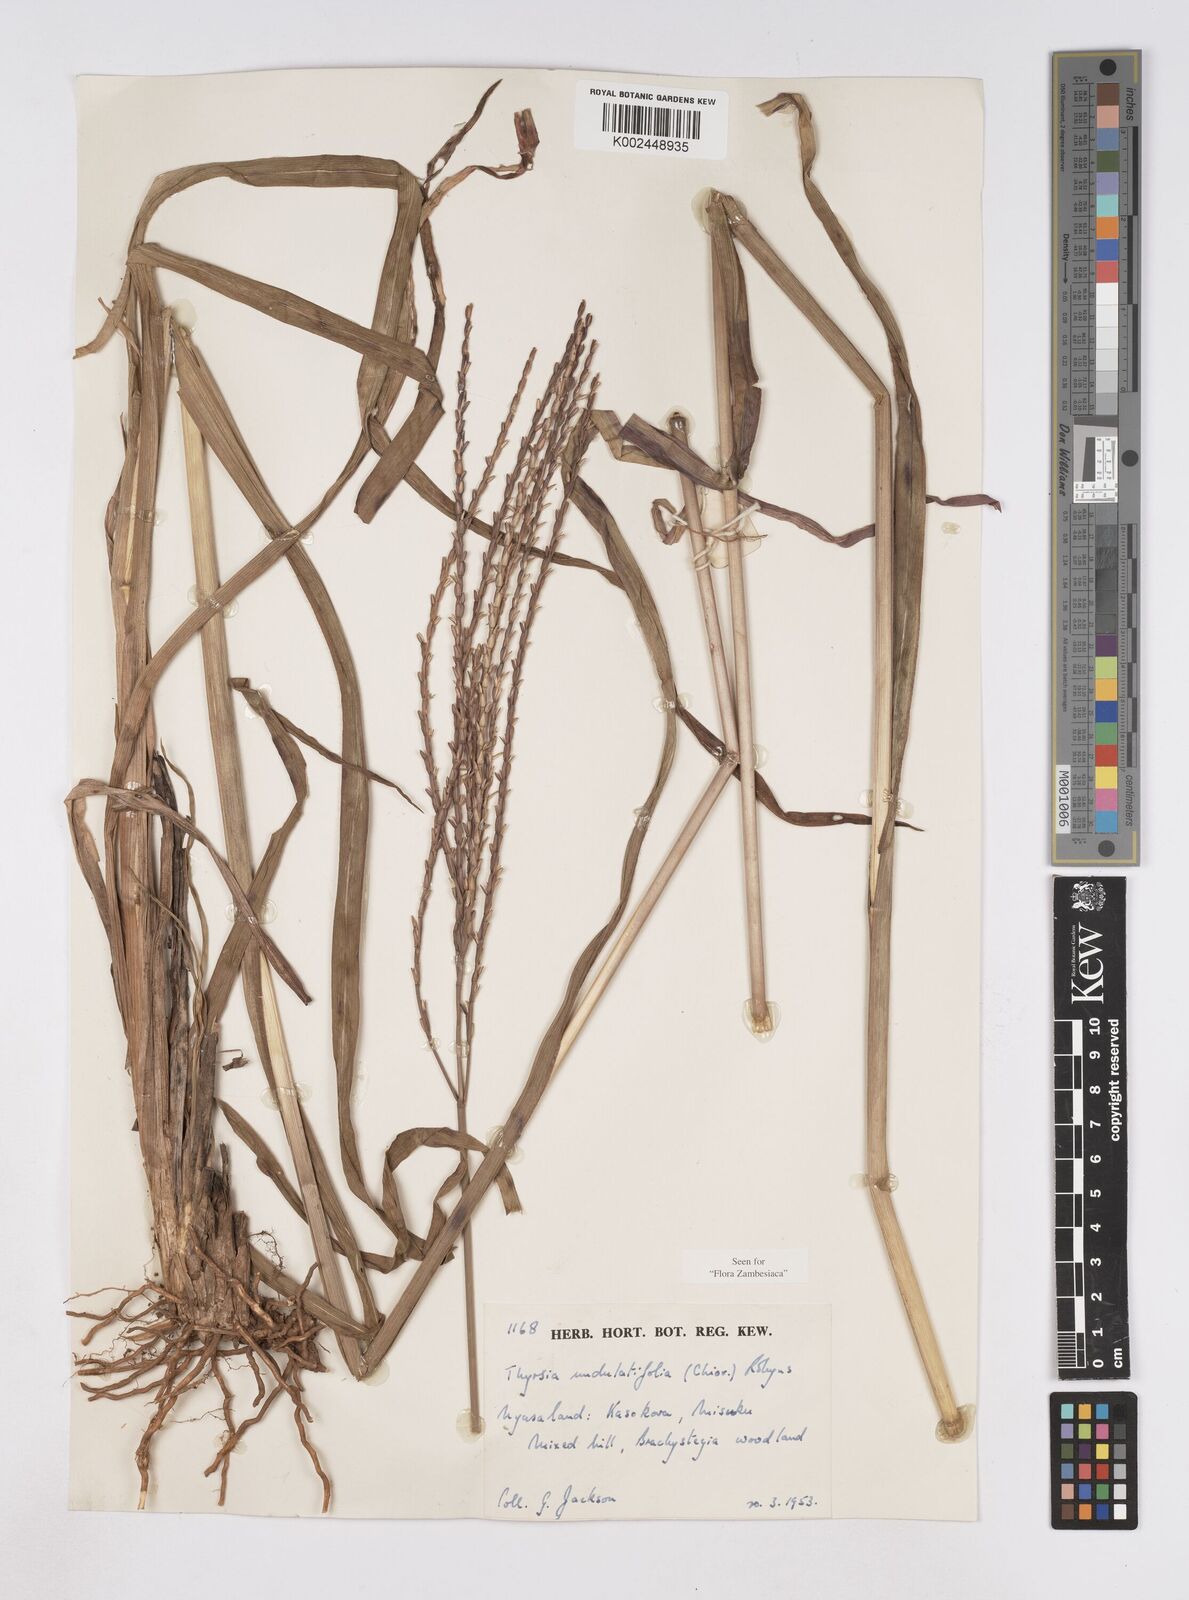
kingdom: Plantae
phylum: Tracheophyta
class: Liliopsida
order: Poales
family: Poaceae
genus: Thyrsia
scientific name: Thyrsia huillensis
